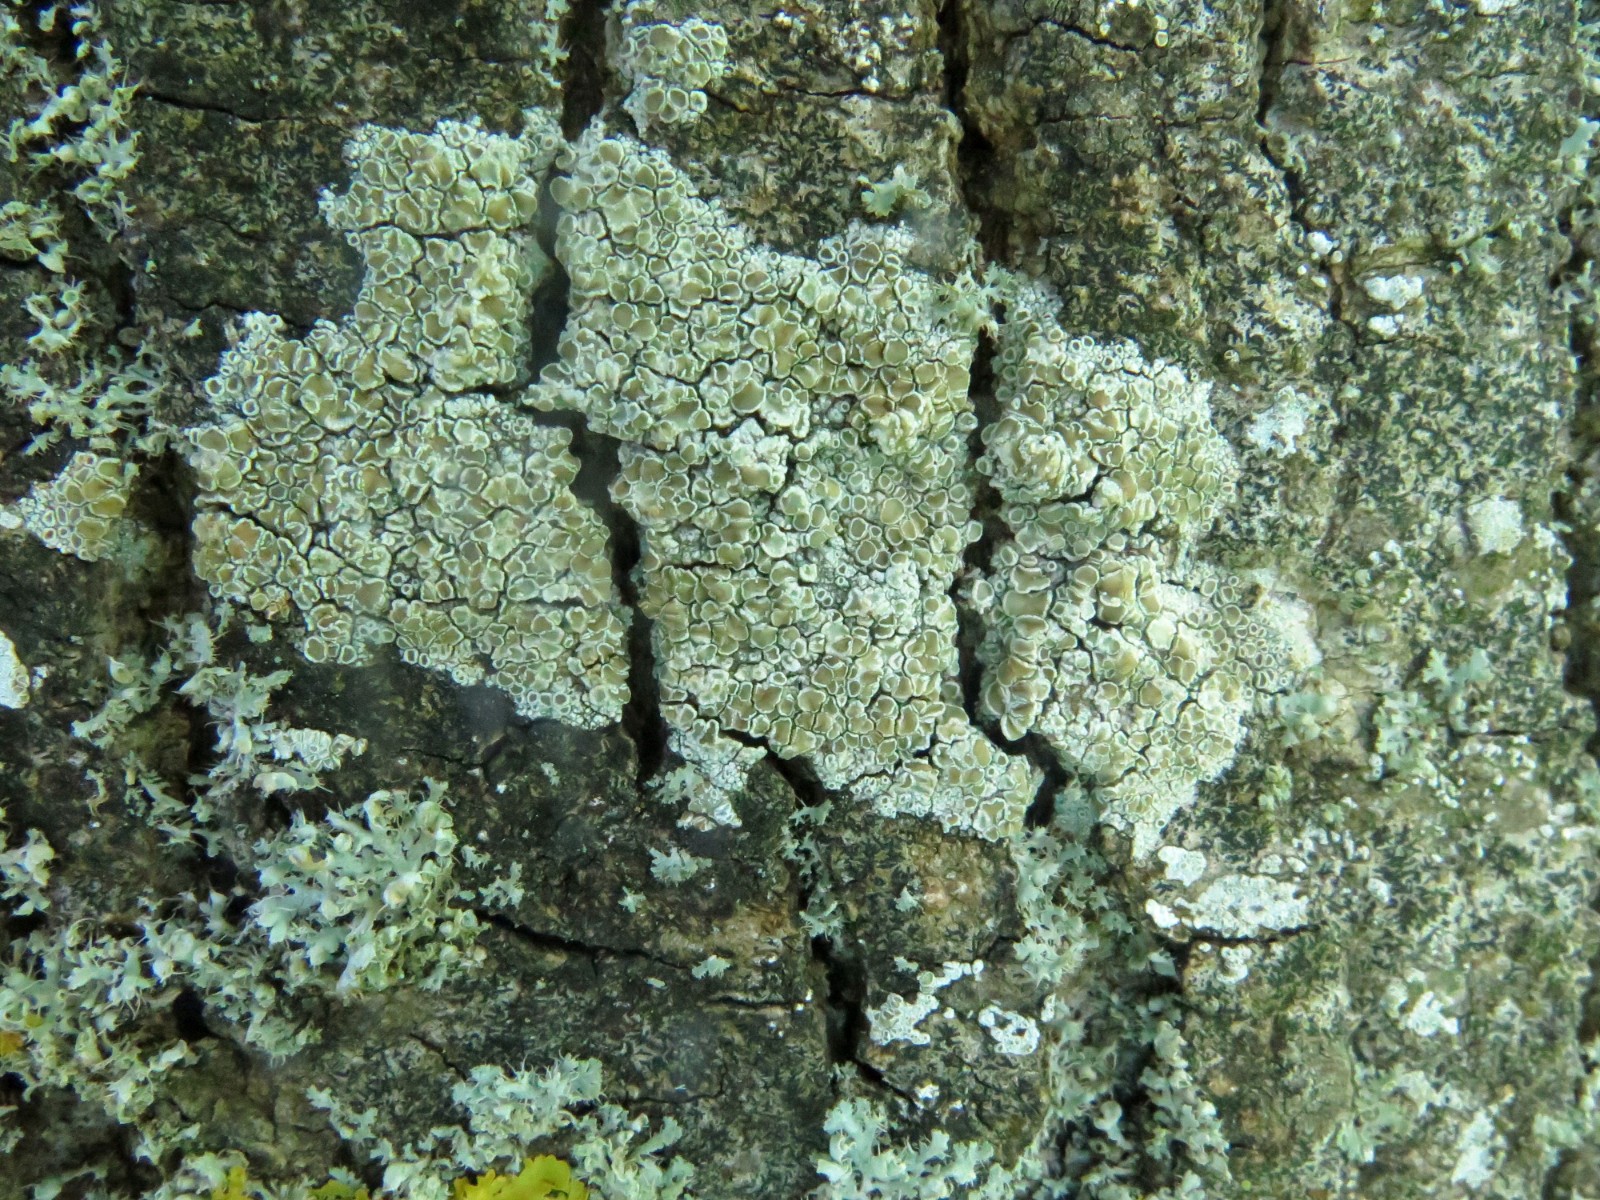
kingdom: Fungi
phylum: Ascomycota
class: Lecanoromycetes
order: Lecanorales
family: Lecanoraceae
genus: Lecanora
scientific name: Lecanora
